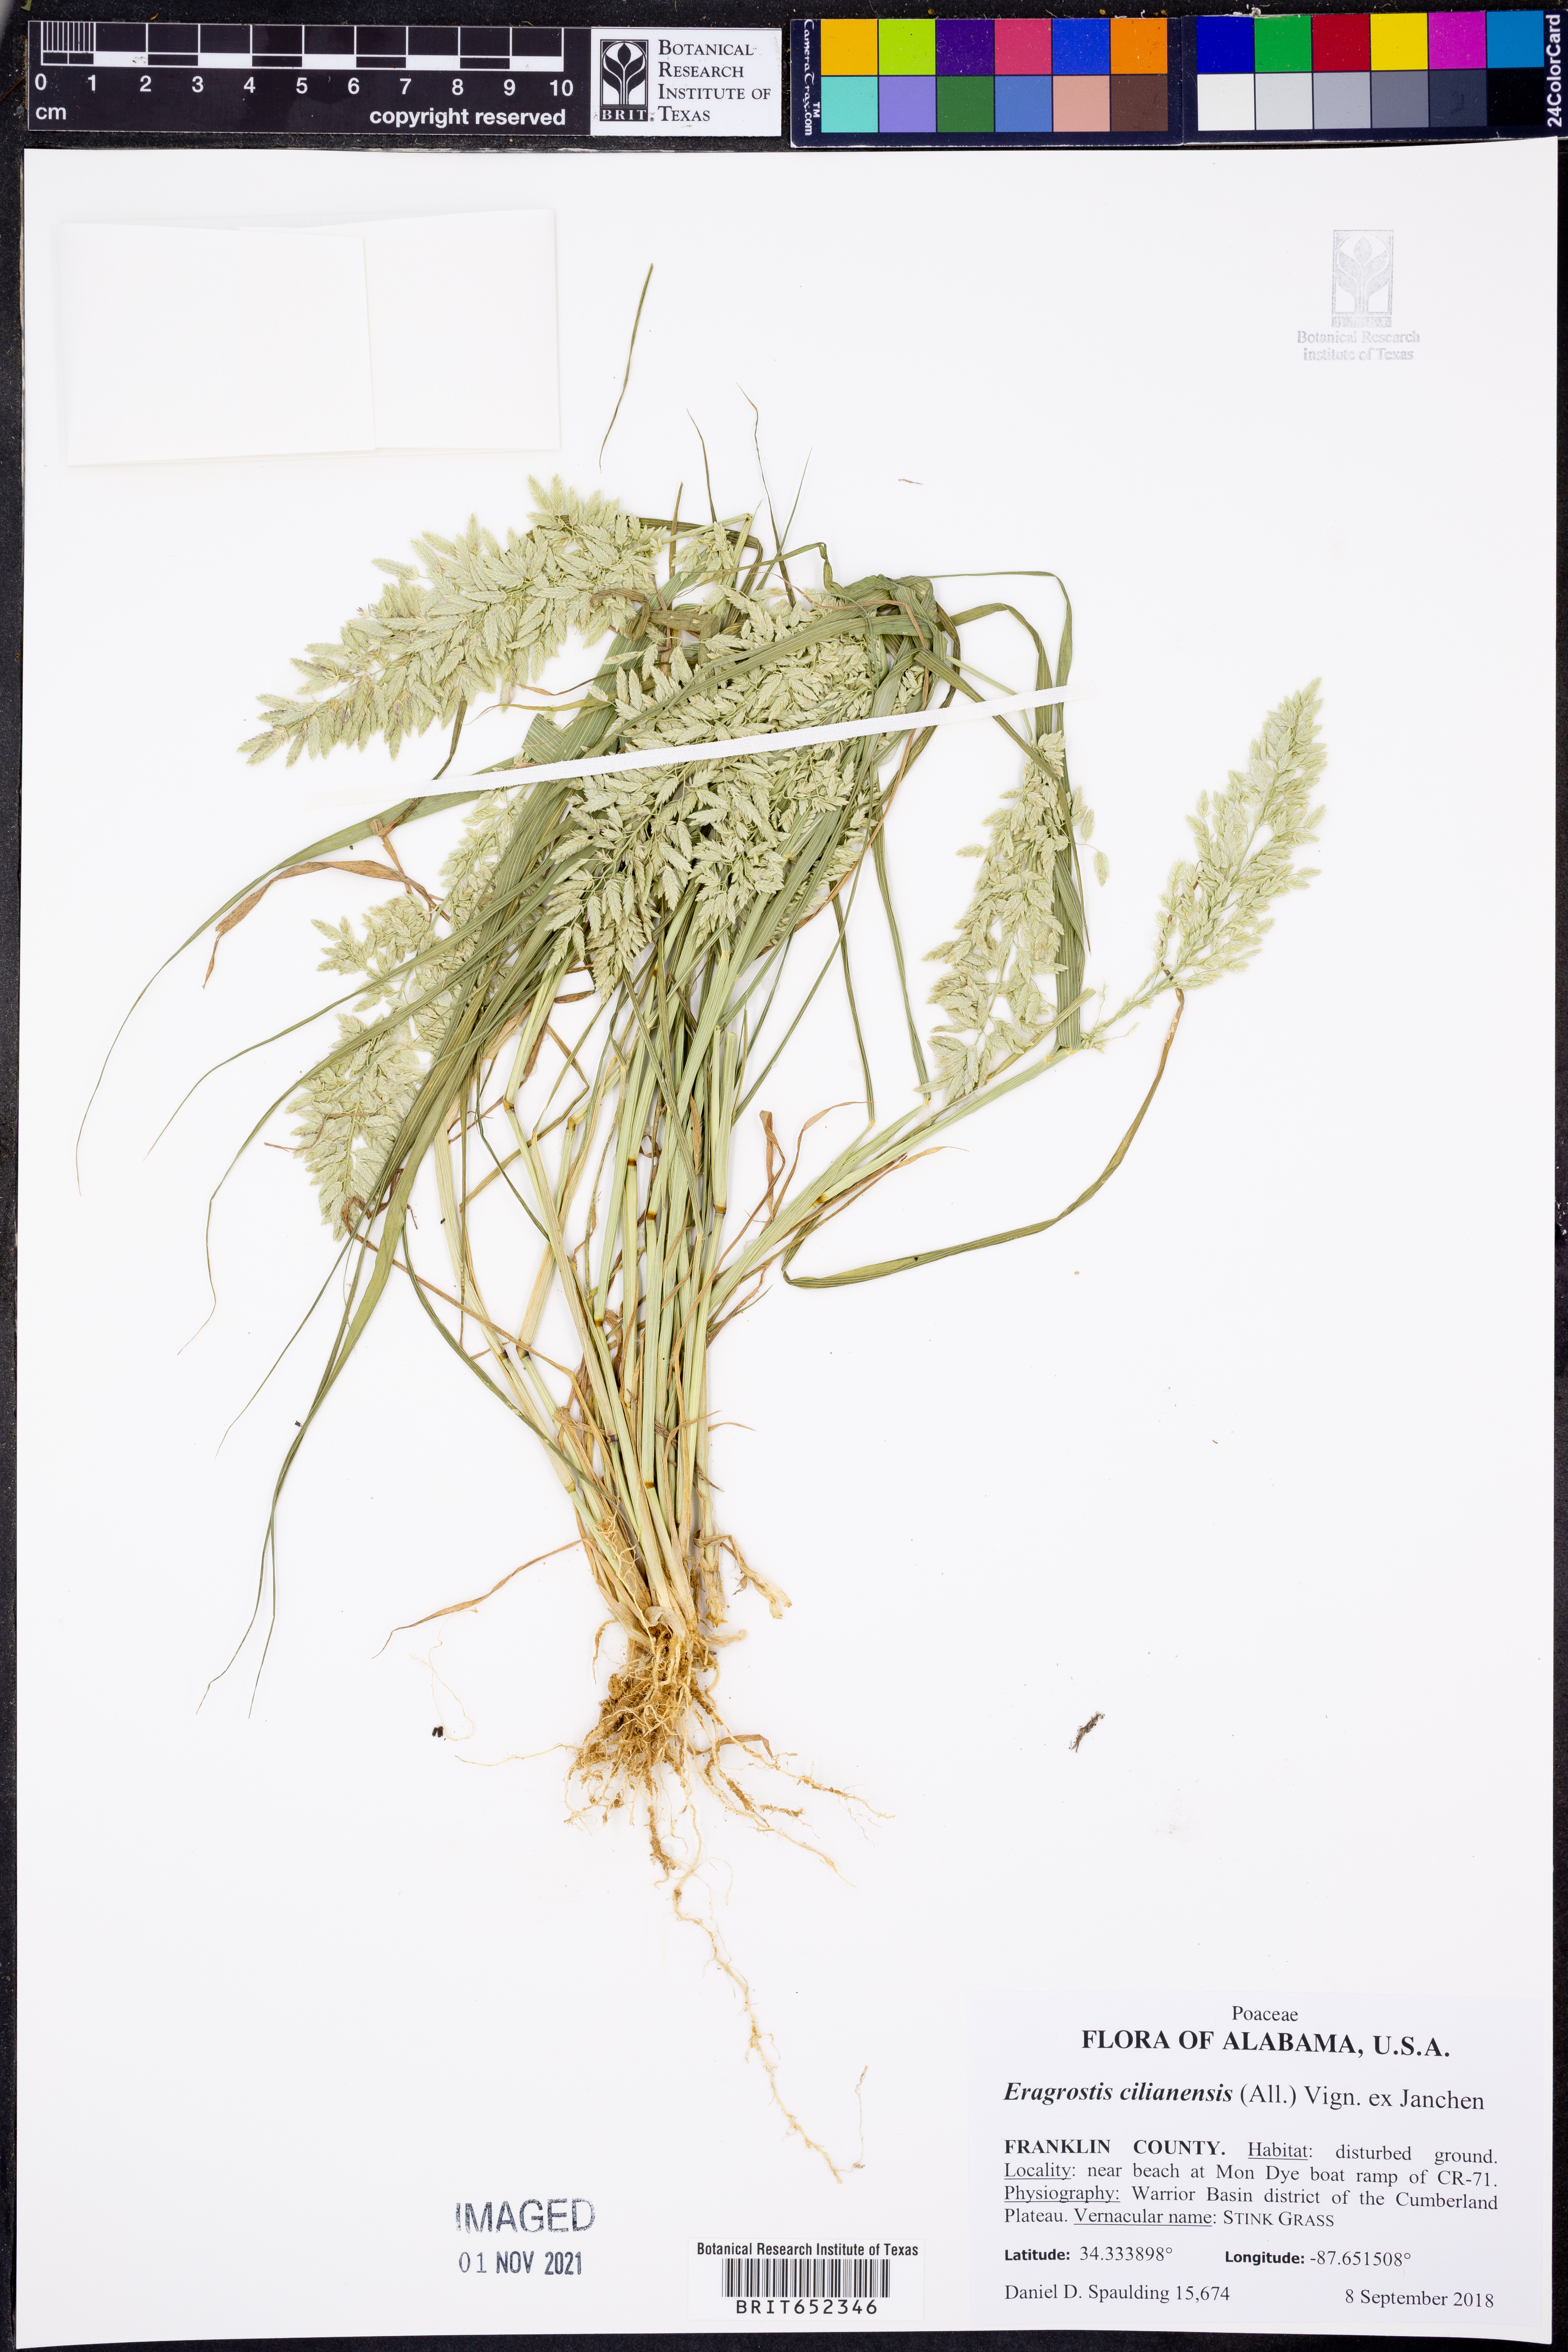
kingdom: Plantae
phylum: Tracheophyta
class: Liliopsida
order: Poales
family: Poaceae
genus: Eragrostis
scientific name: Eragrostis cilianensis
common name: Stinkgrass
